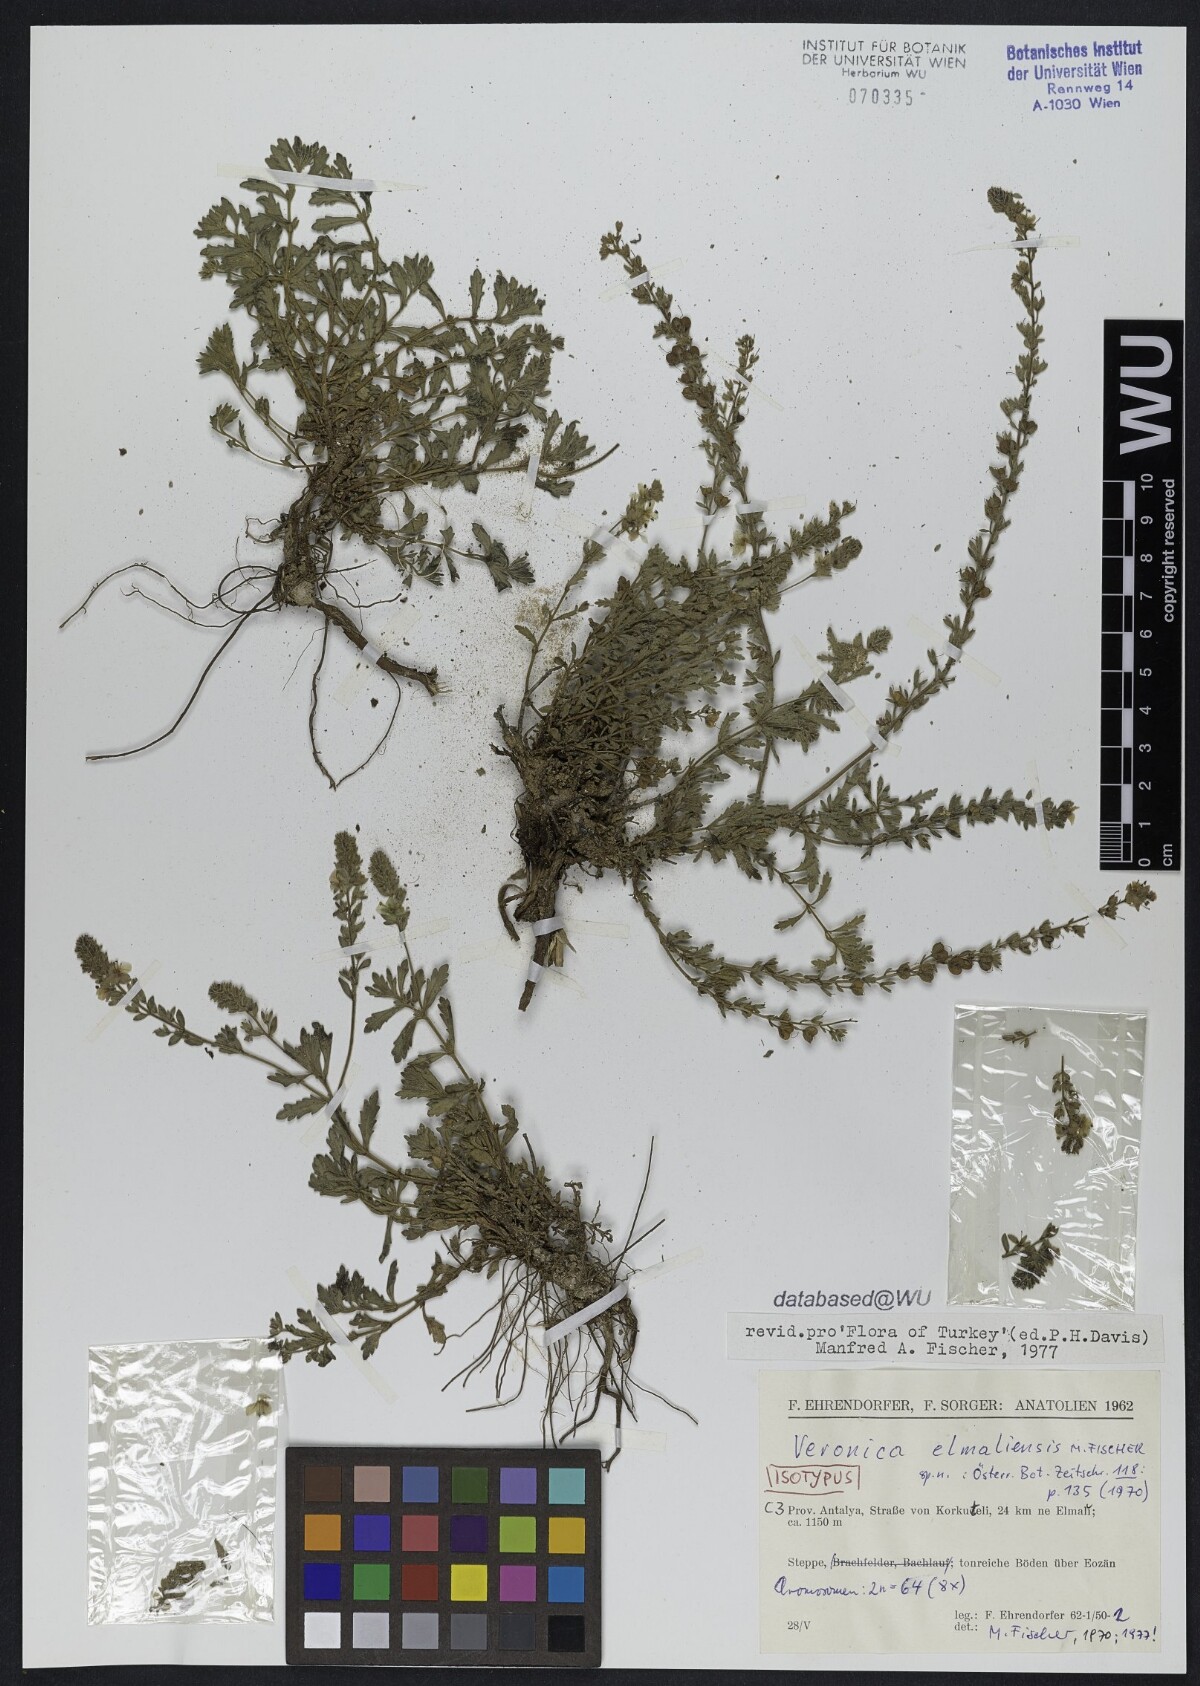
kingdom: Plantae
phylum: Tracheophyta
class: Magnoliopsida
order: Lamiales
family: Plantaginaceae
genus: Veronica
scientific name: Veronica elmaliensis
